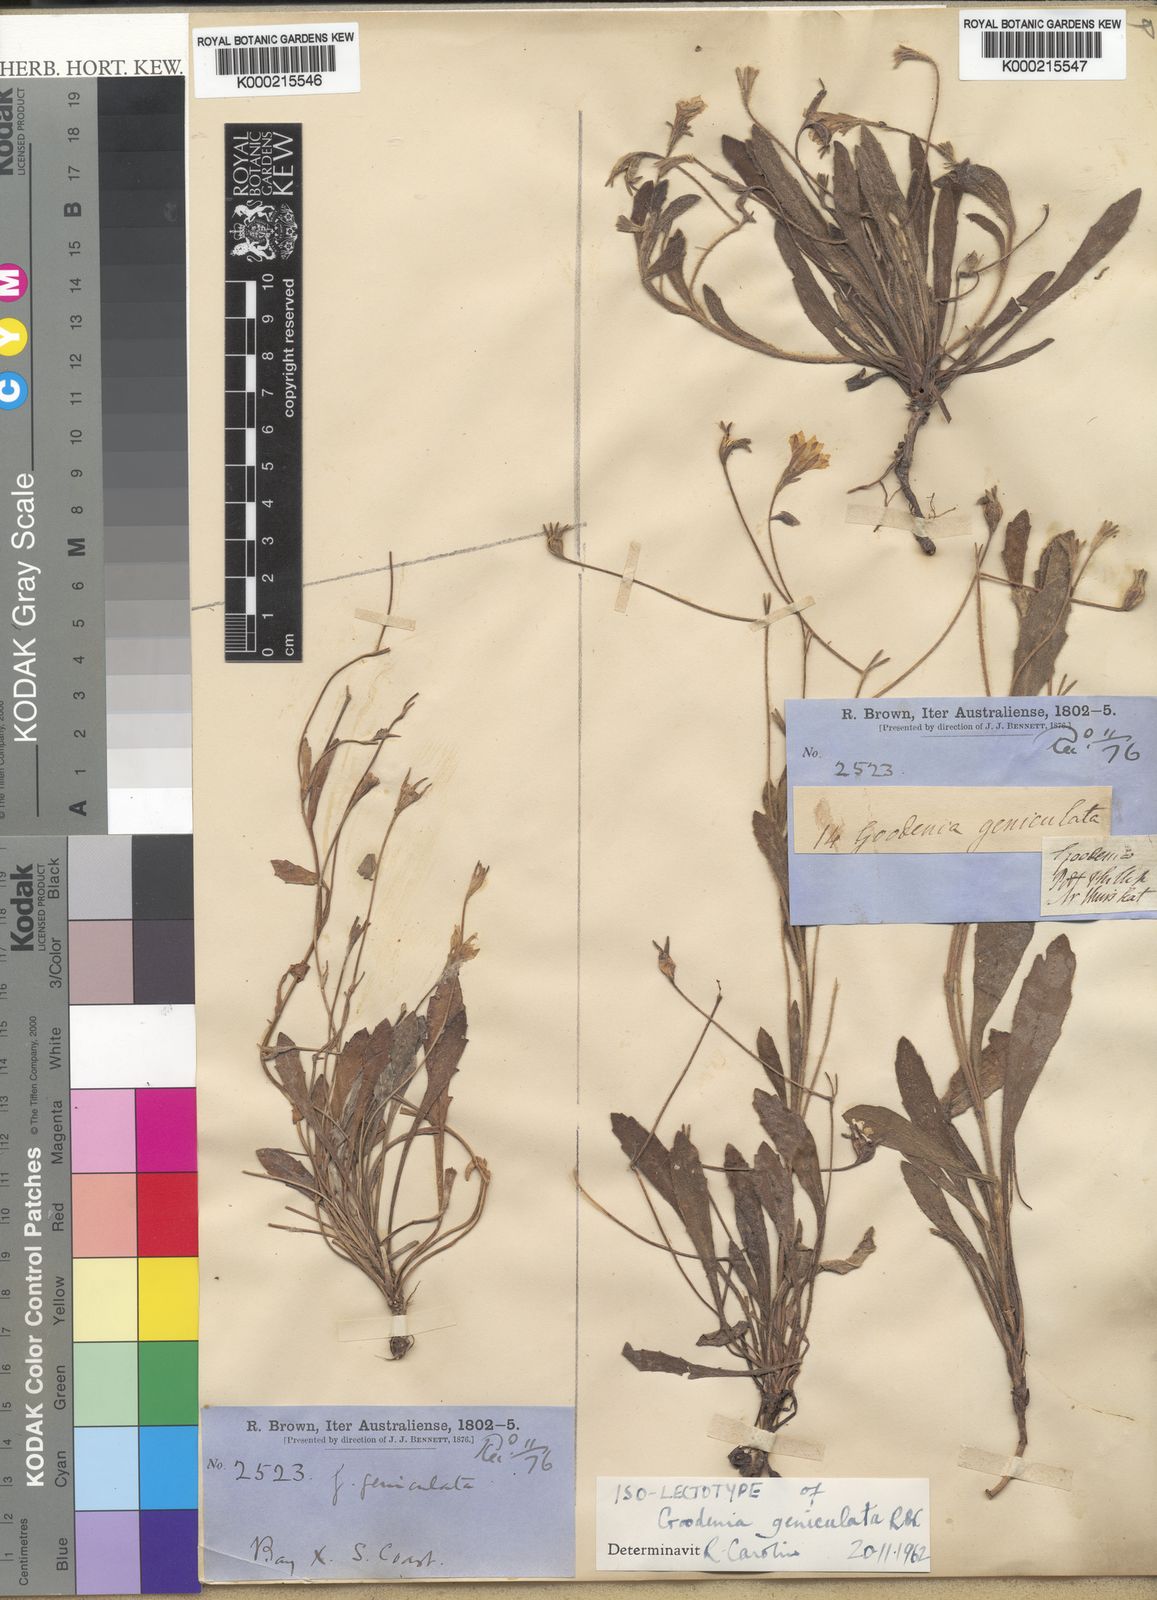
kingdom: Plantae
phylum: Tracheophyta
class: Magnoliopsida
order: Asterales
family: Goodeniaceae
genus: Goodenia
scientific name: Goodenia geniculata
